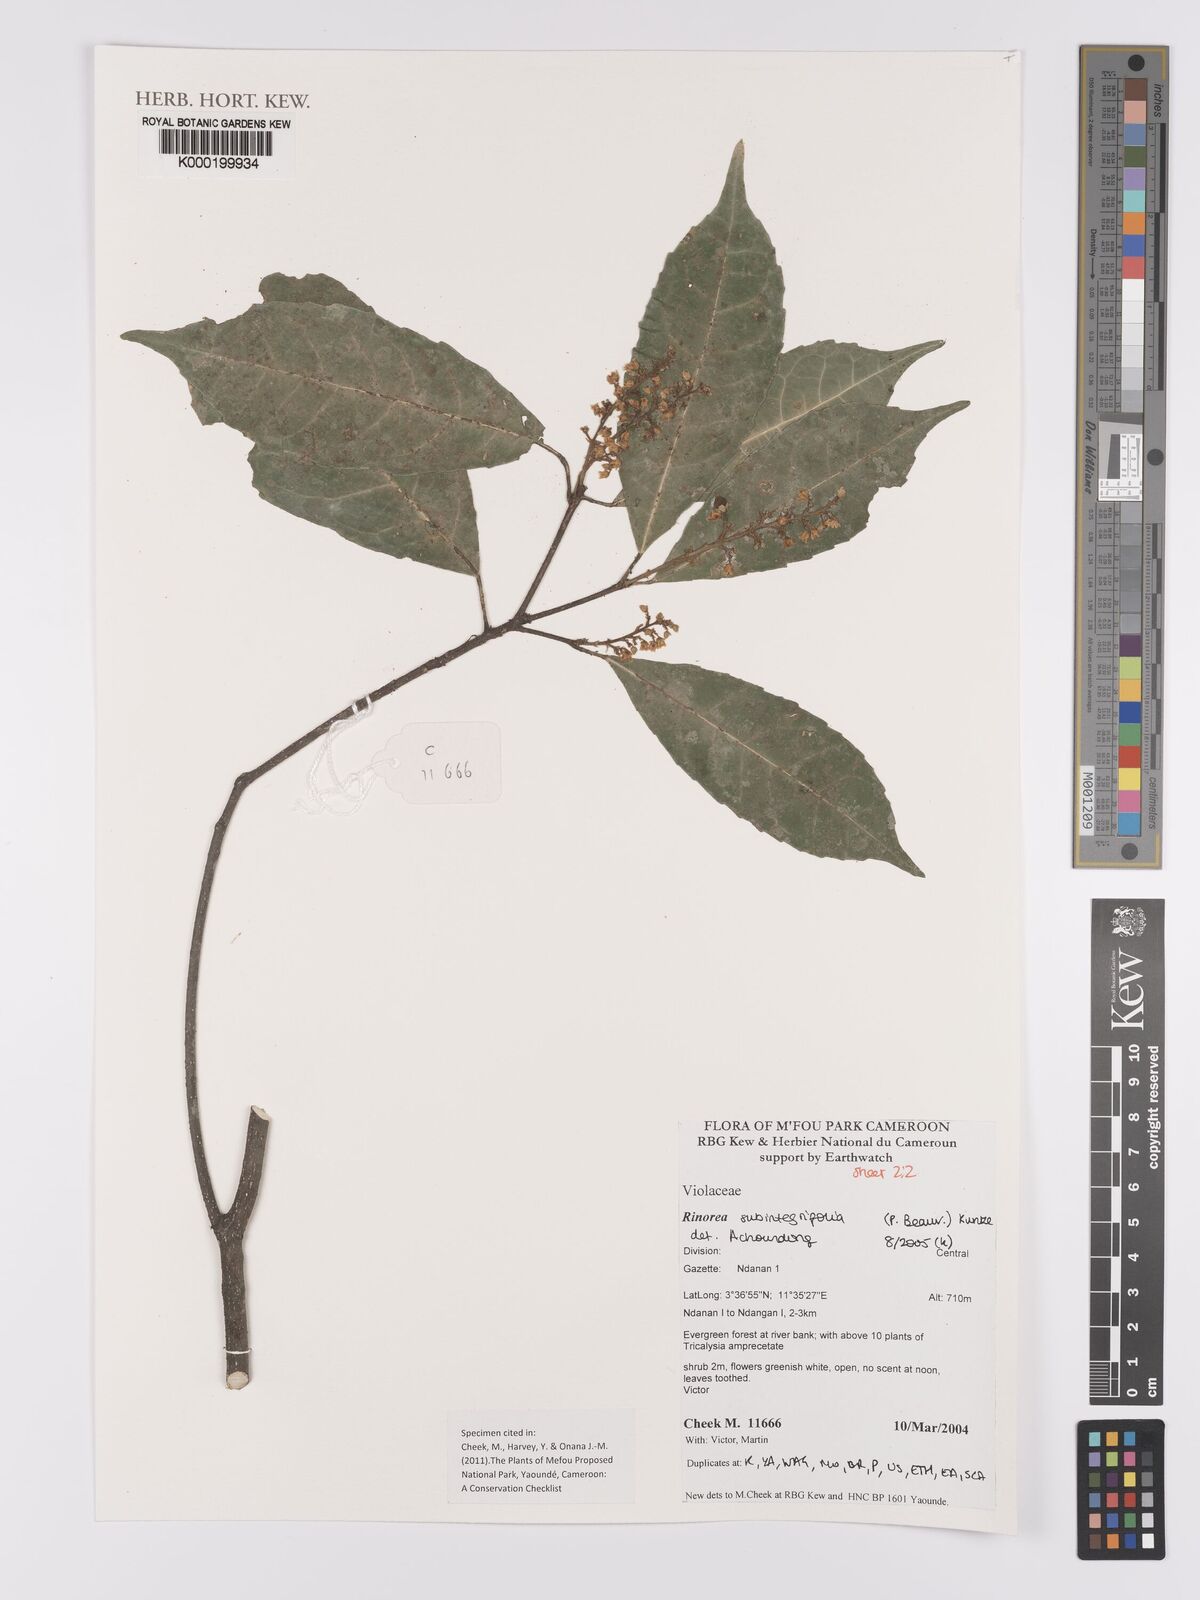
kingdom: Plantae
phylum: Tracheophyta
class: Magnoliopsida
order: Malpighiales
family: Violaceae
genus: Rinorea
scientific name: Rinorea subintegrifolia
